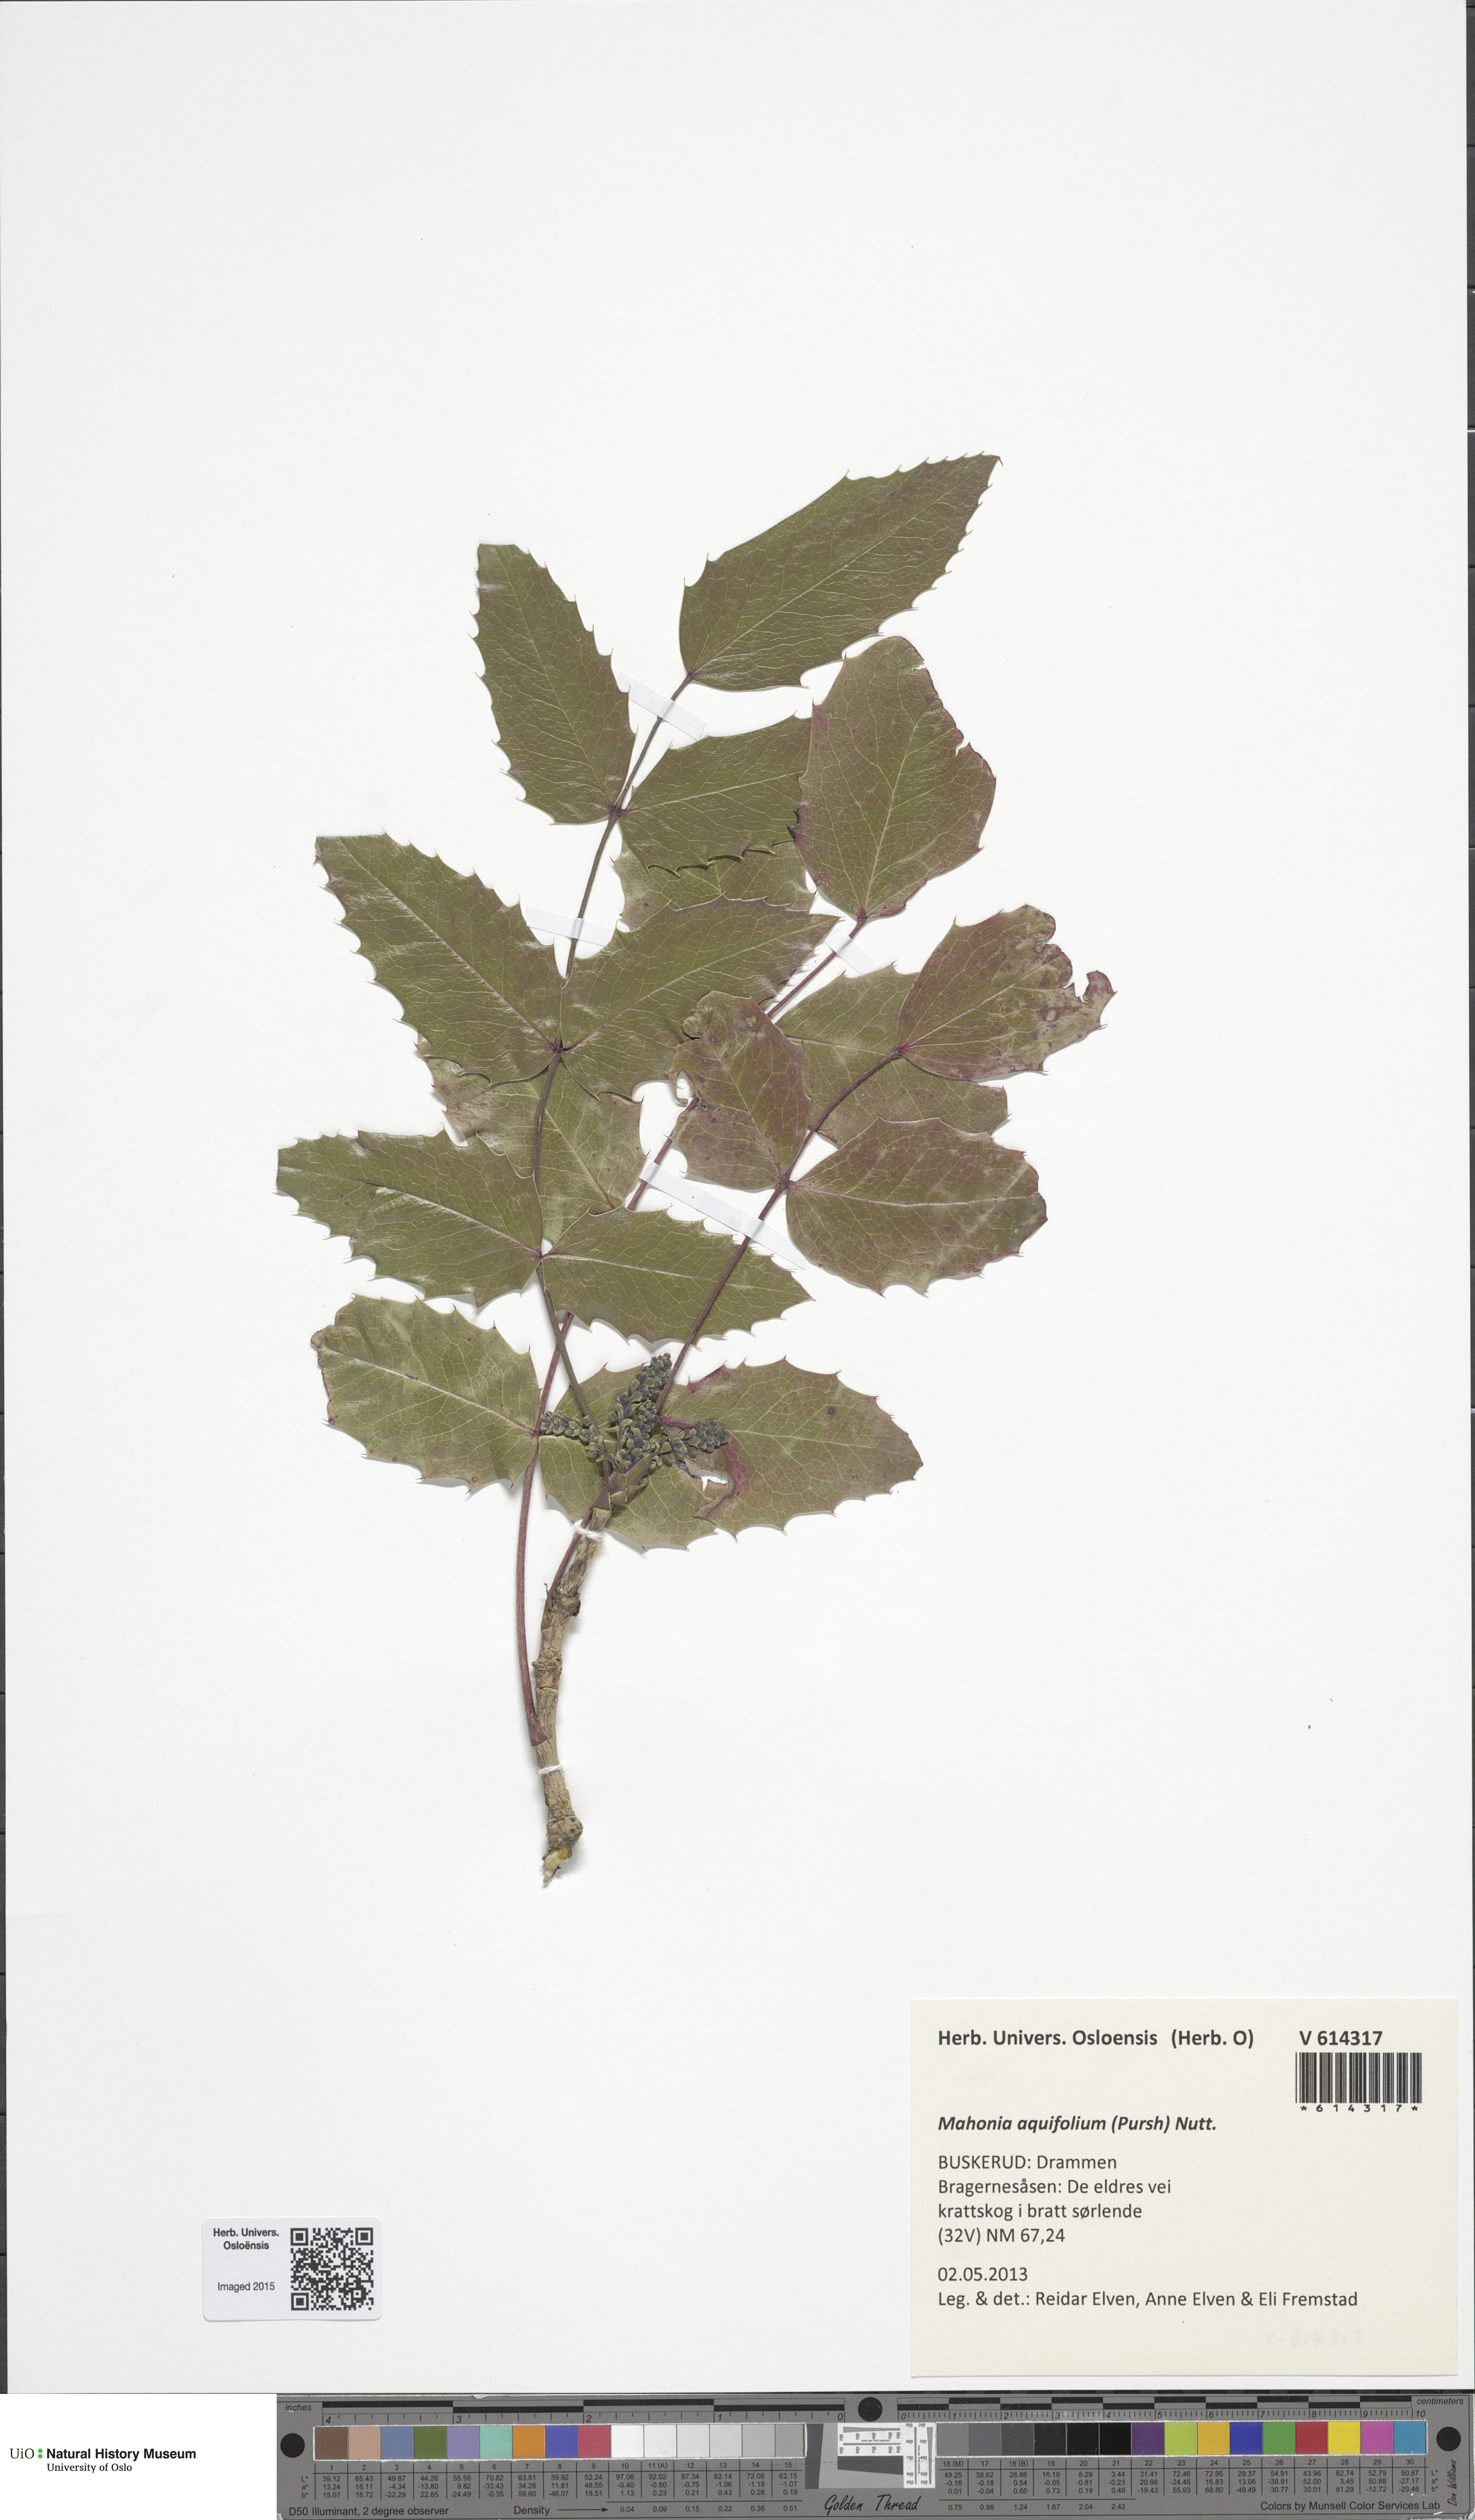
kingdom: Plantae
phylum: Tracheophyta
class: Magnoliopsida
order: Ranunculales
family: Berberidaceae
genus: Mahonia
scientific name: Mahonia aquifolium
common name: Oregon-grape
